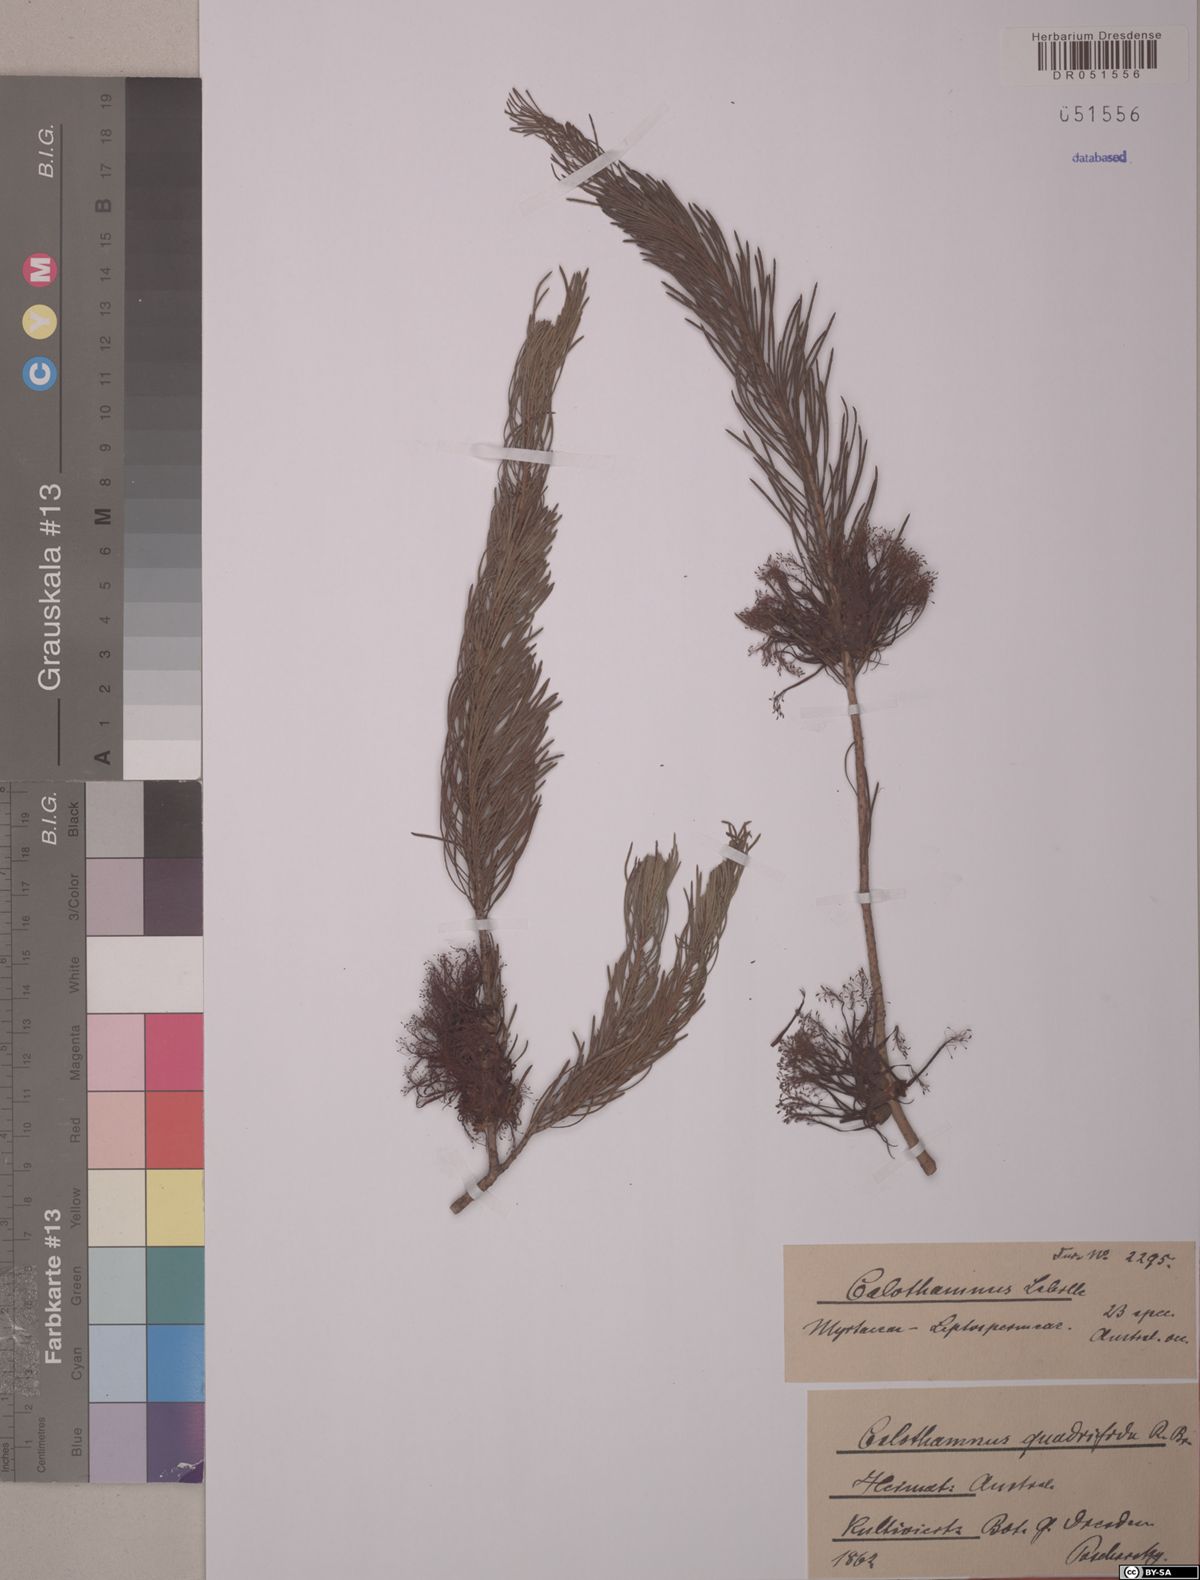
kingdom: Plantae
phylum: Tracheophyta
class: Magnoliopsida
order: Myrtales
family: Myrtaceae
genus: Melaleuca
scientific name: Melaleuca quadrifida
